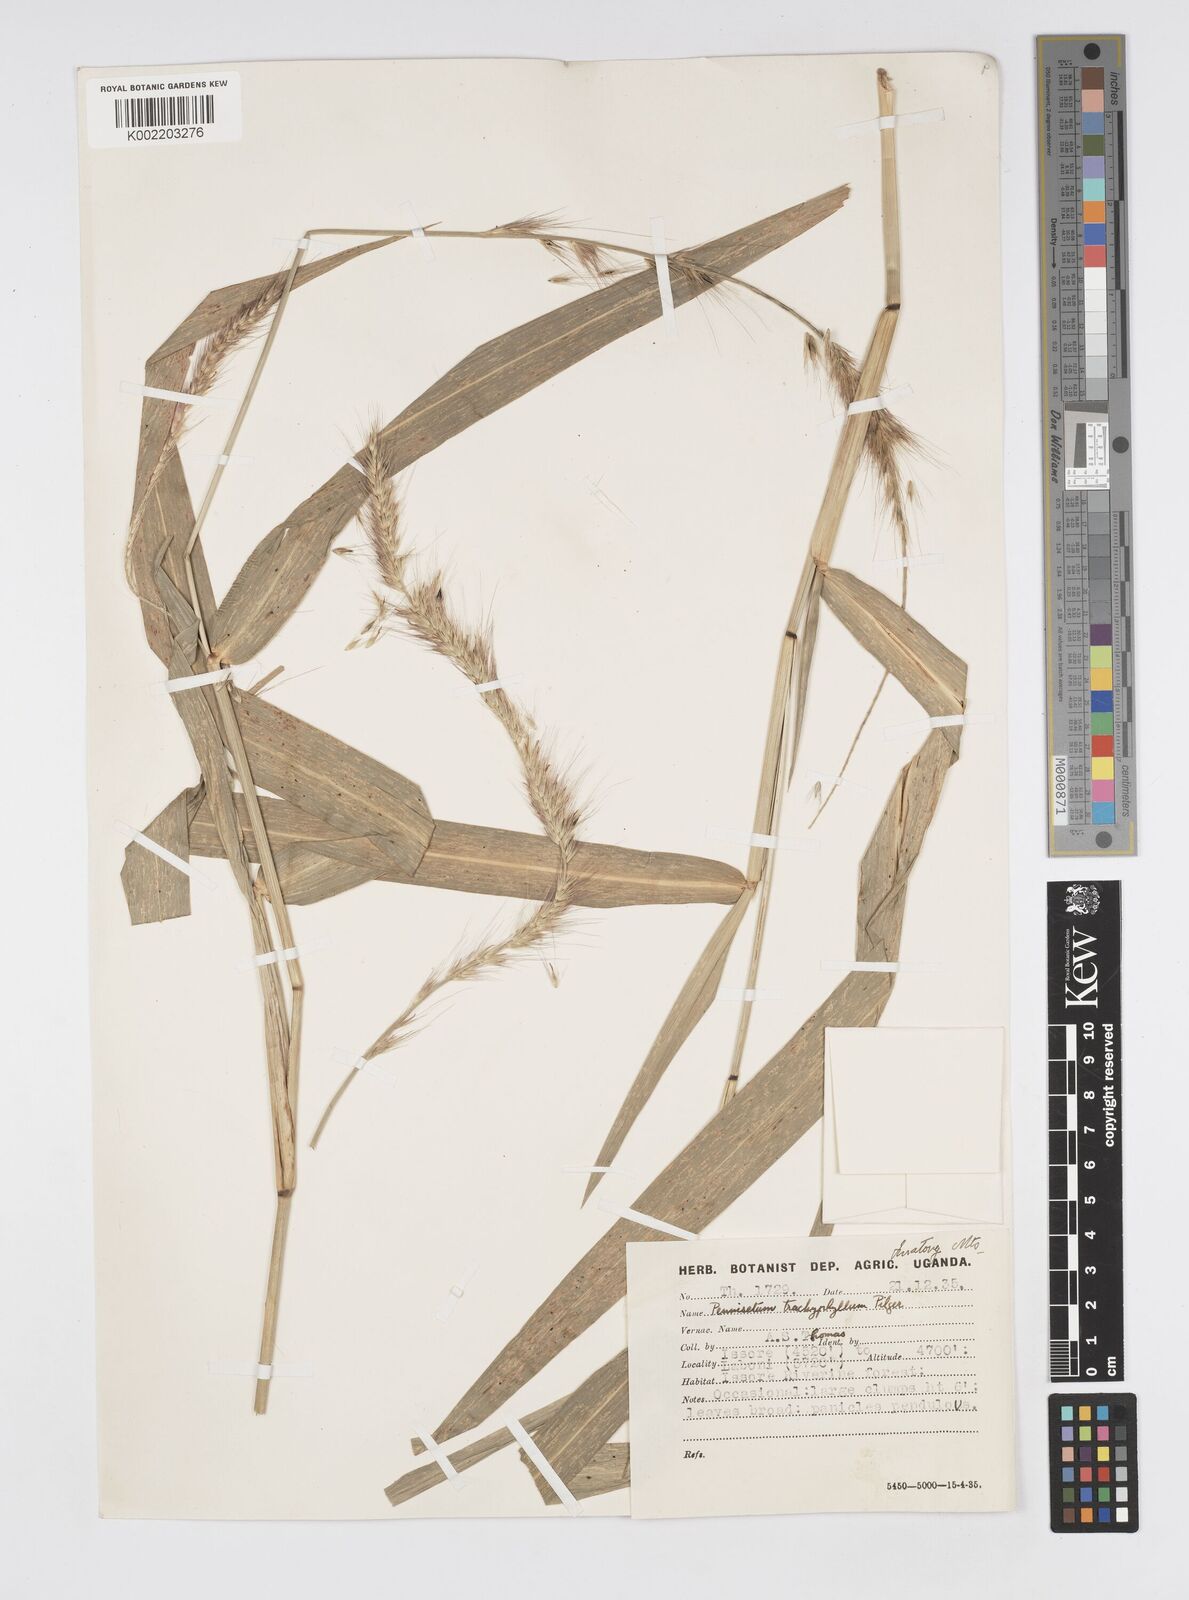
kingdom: Plantae
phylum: Tracheophyta
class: Liliopsida
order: Poales
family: Poaceae
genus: Cenchrus
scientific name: Cenchrus trachyphyllus
